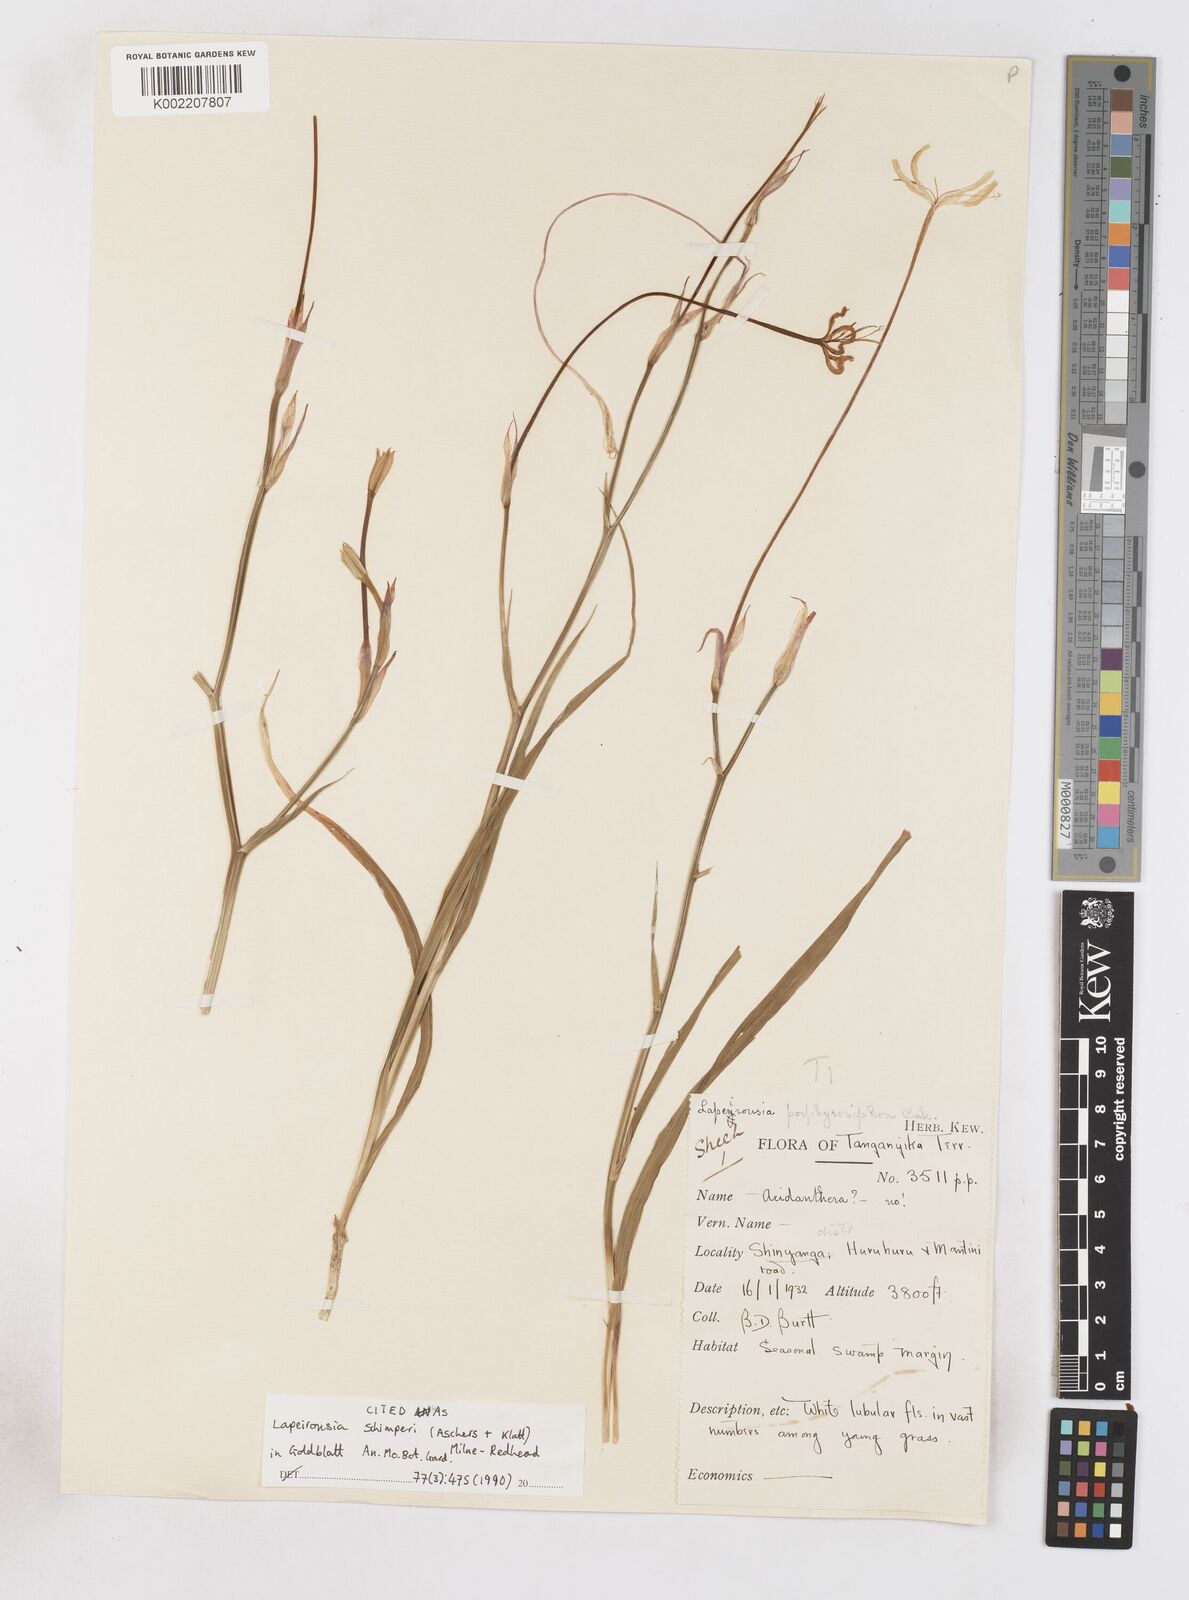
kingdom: Plantae
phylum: Tracheophyta
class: Liliopsida
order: Asparagales
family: Iridaceae
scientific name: Iridaceae
